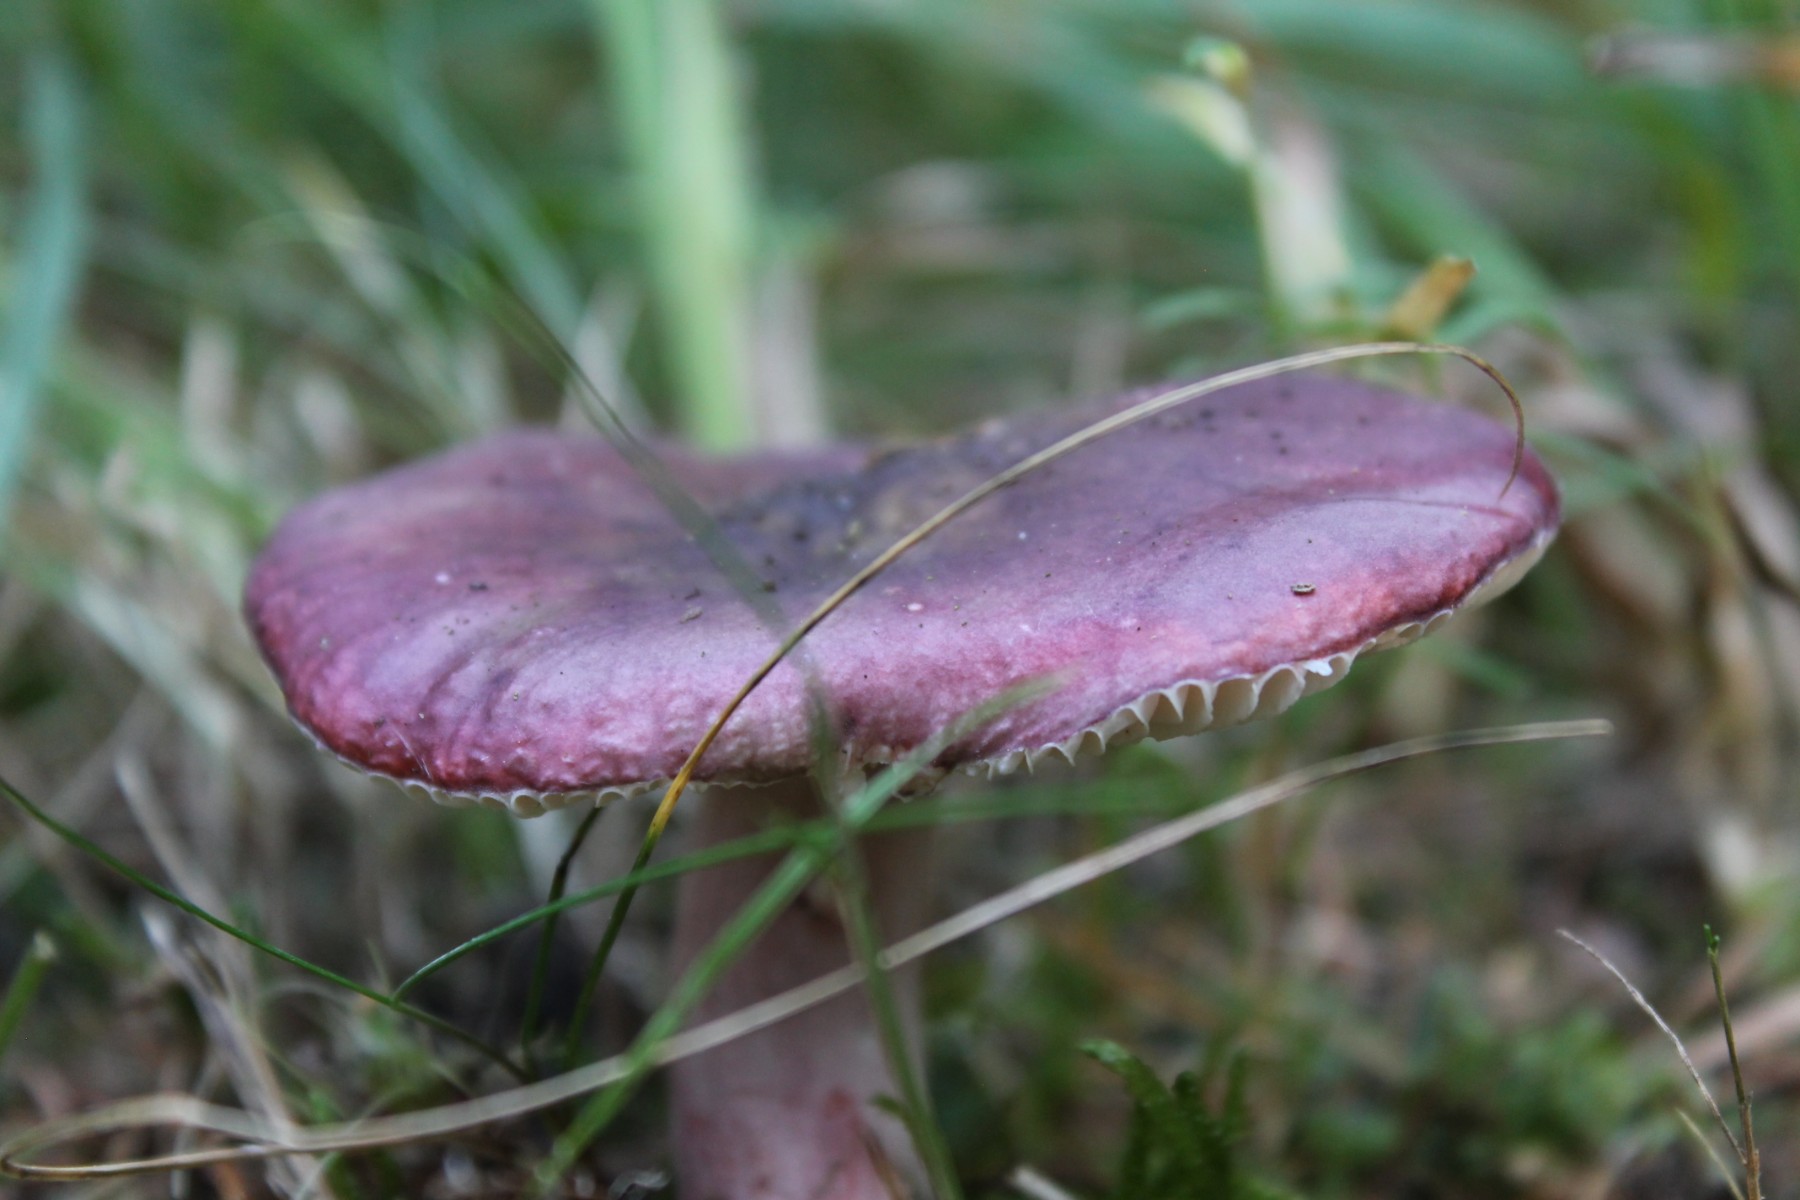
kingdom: Fungi
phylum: Basidiomycota
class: Agaricomycetes
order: Russulales
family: Russulaceae
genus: Russula
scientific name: Russula queletii
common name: Quélets skørhat
